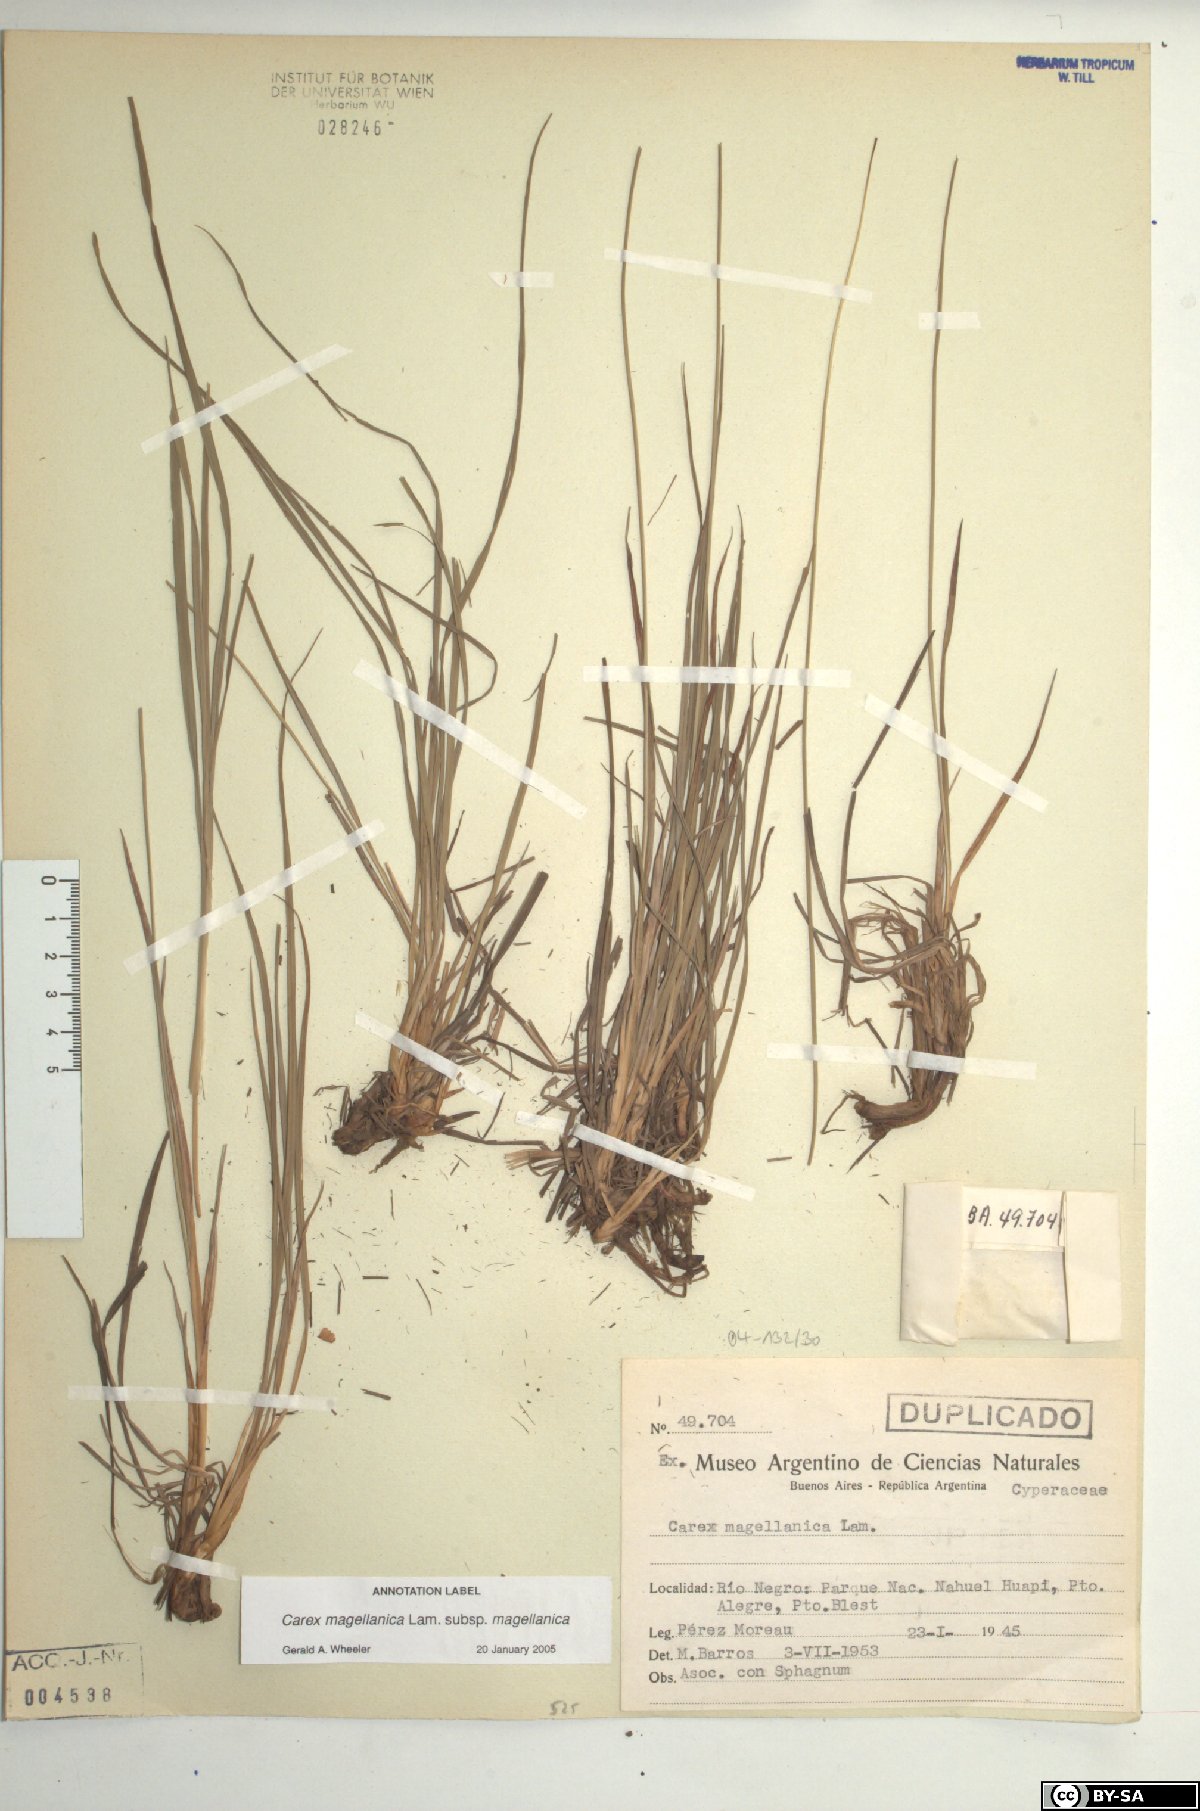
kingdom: Plantae
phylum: Tracheophyta
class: Liliopsida
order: Poales
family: Cyperaceae
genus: Carex
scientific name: Carex magellanica
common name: Bog sedge
